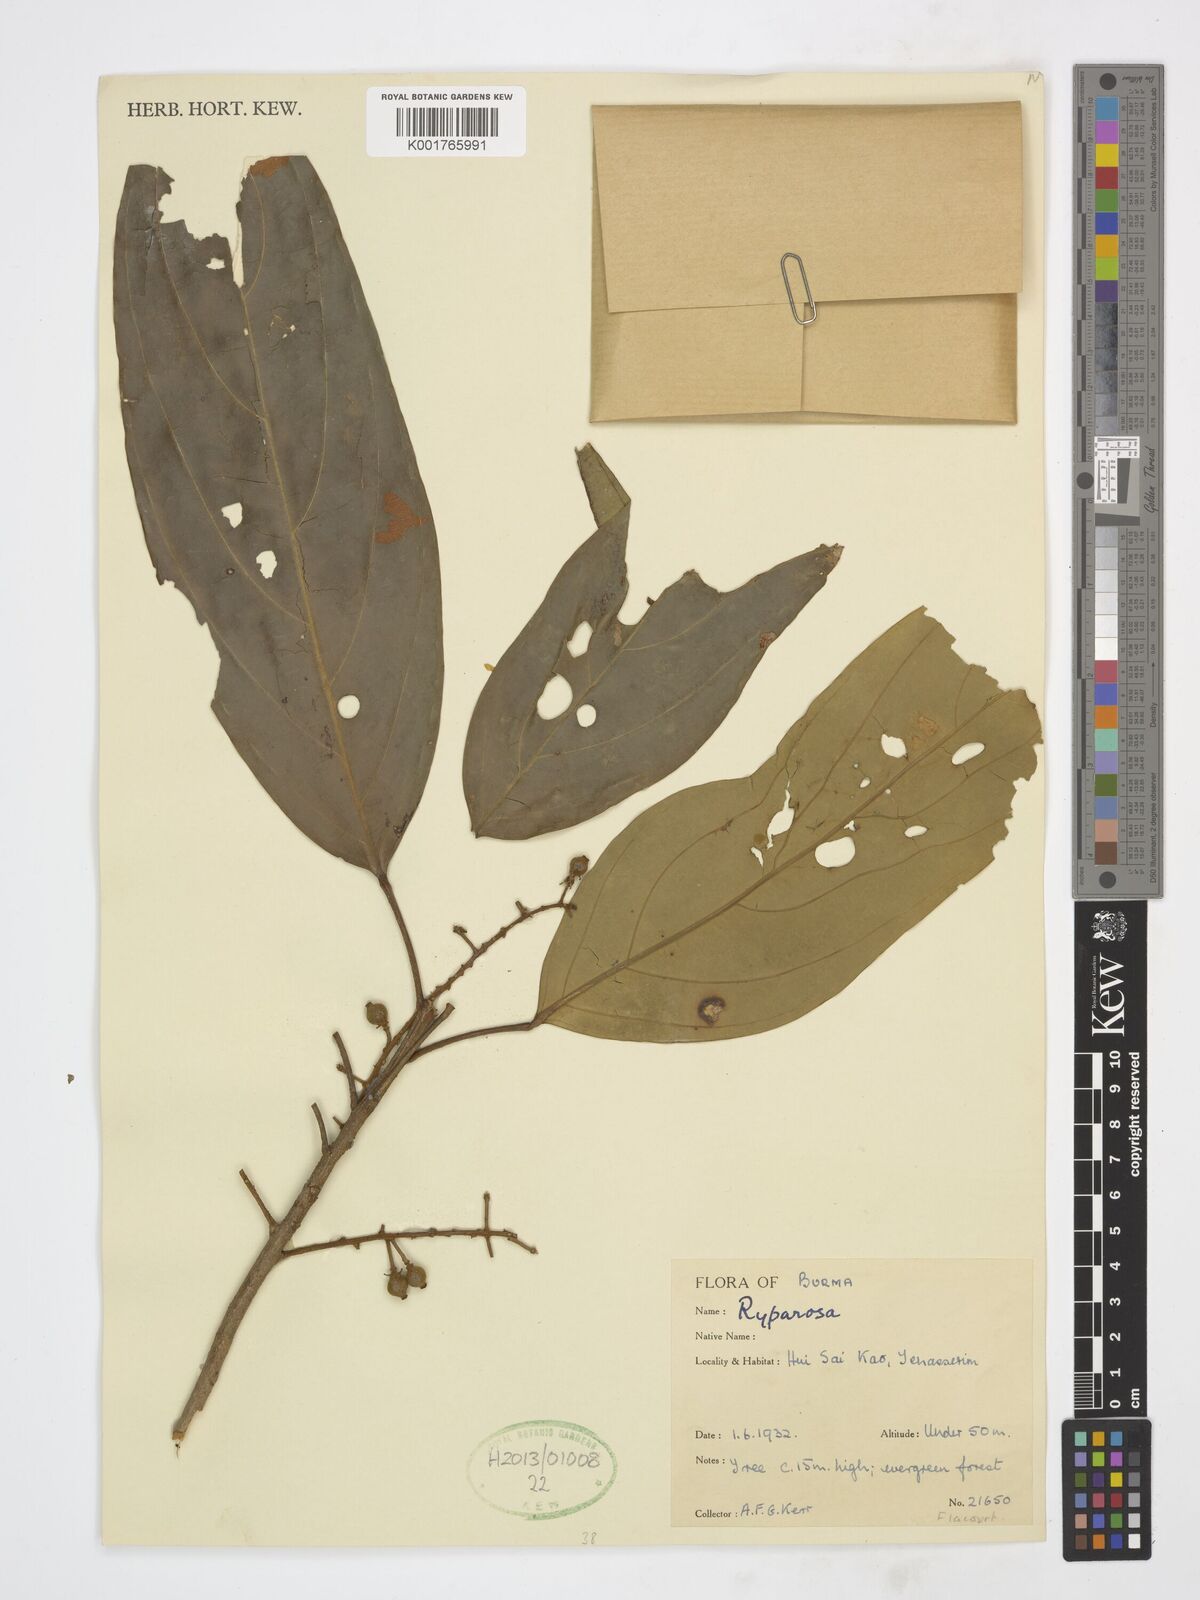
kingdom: Plantae
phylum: Tracheophyta
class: Magnoliopsida
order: Malpighiales
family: Achariaceae
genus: Ryparosa
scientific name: Ryparosa
